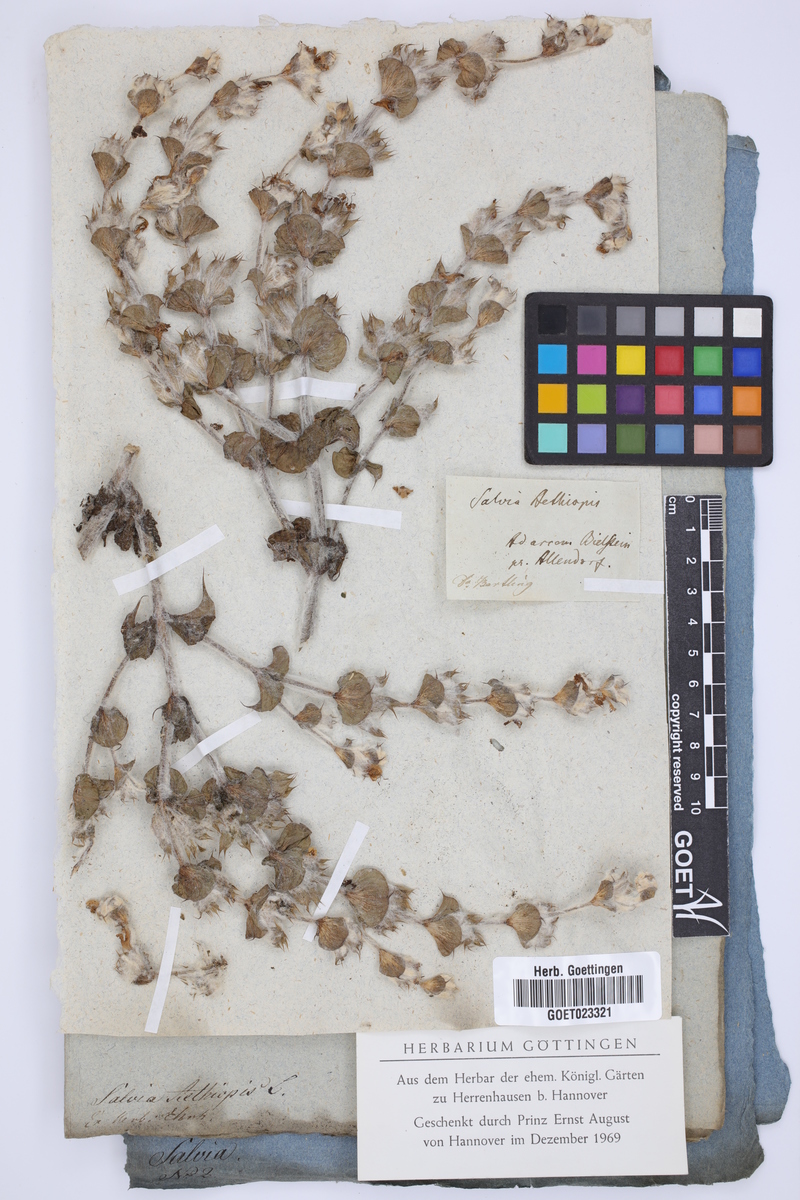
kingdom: Plantae
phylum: Tracheophyta
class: Magnoliopsida
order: Lamiales
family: Lamiaceae
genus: Salvia
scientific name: Salvia aethiopis
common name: Mediterranean sage
